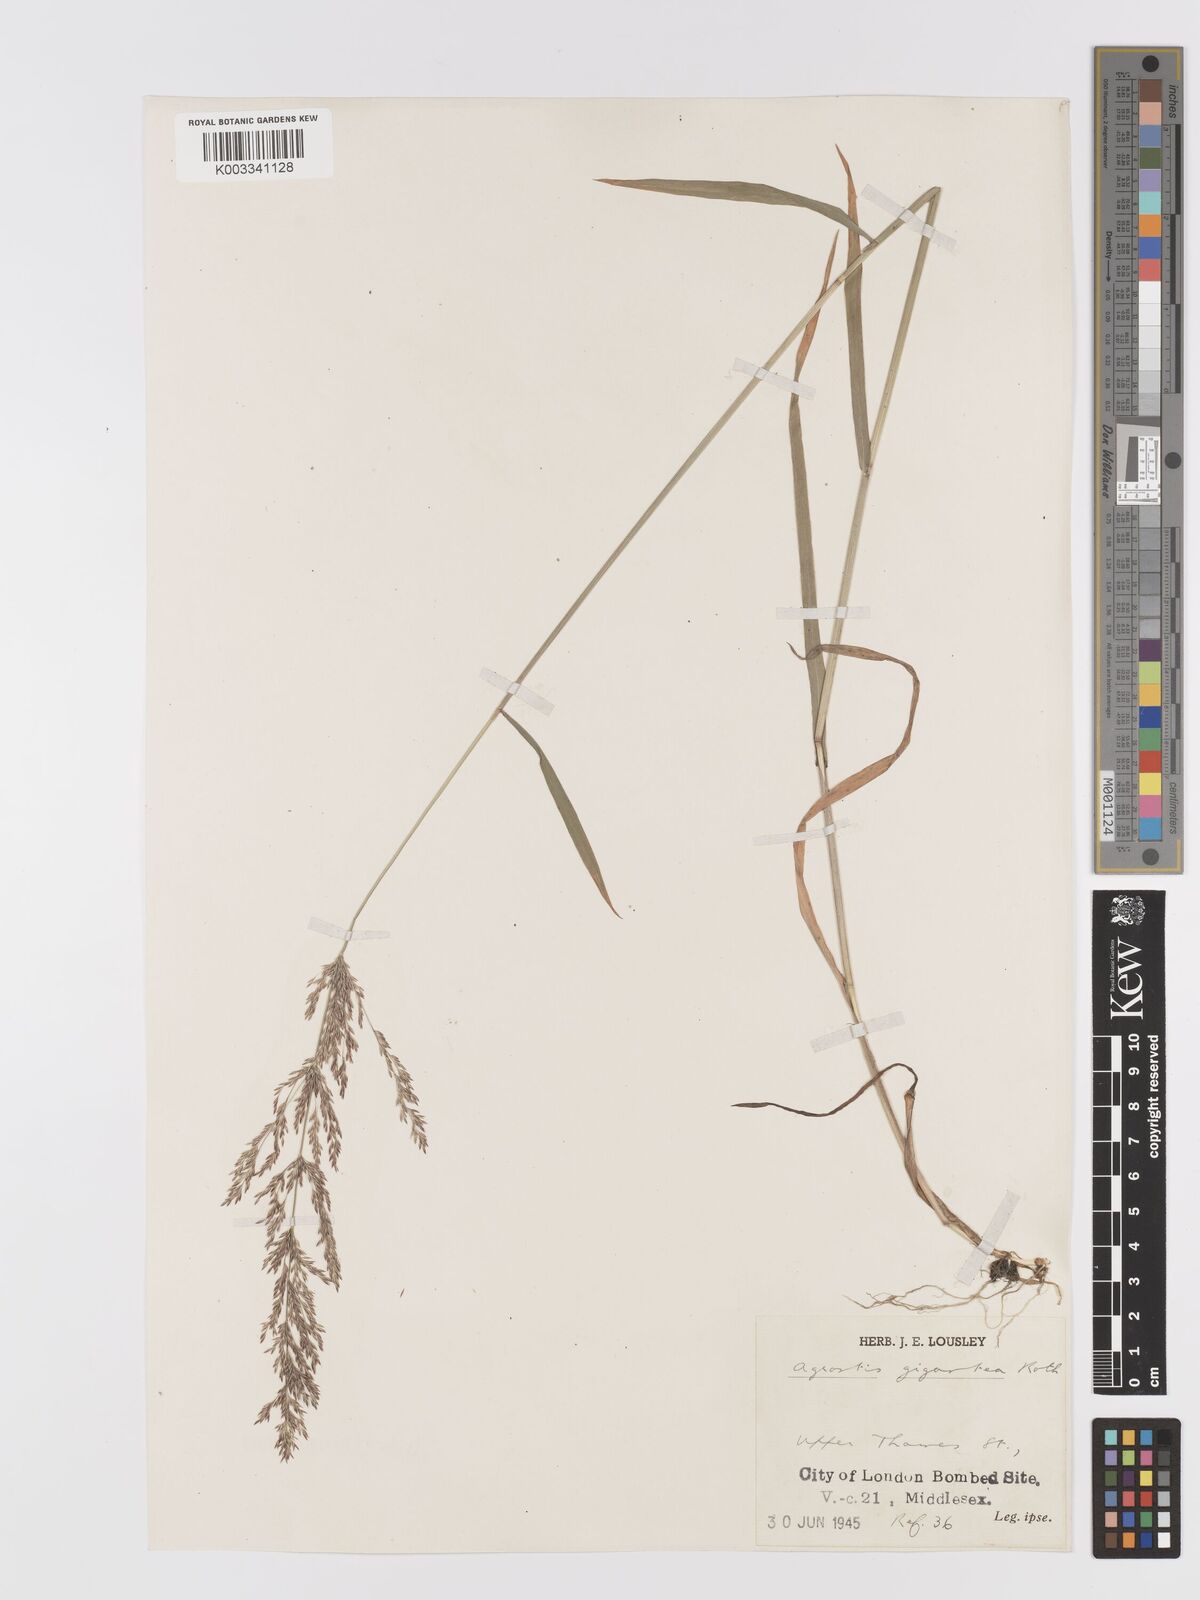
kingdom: Plantae
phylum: Tracheophyta
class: Liliopsida
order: Poales
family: Poaceae
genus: Agrostis
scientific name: Agrostis gigantea
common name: Black bent
